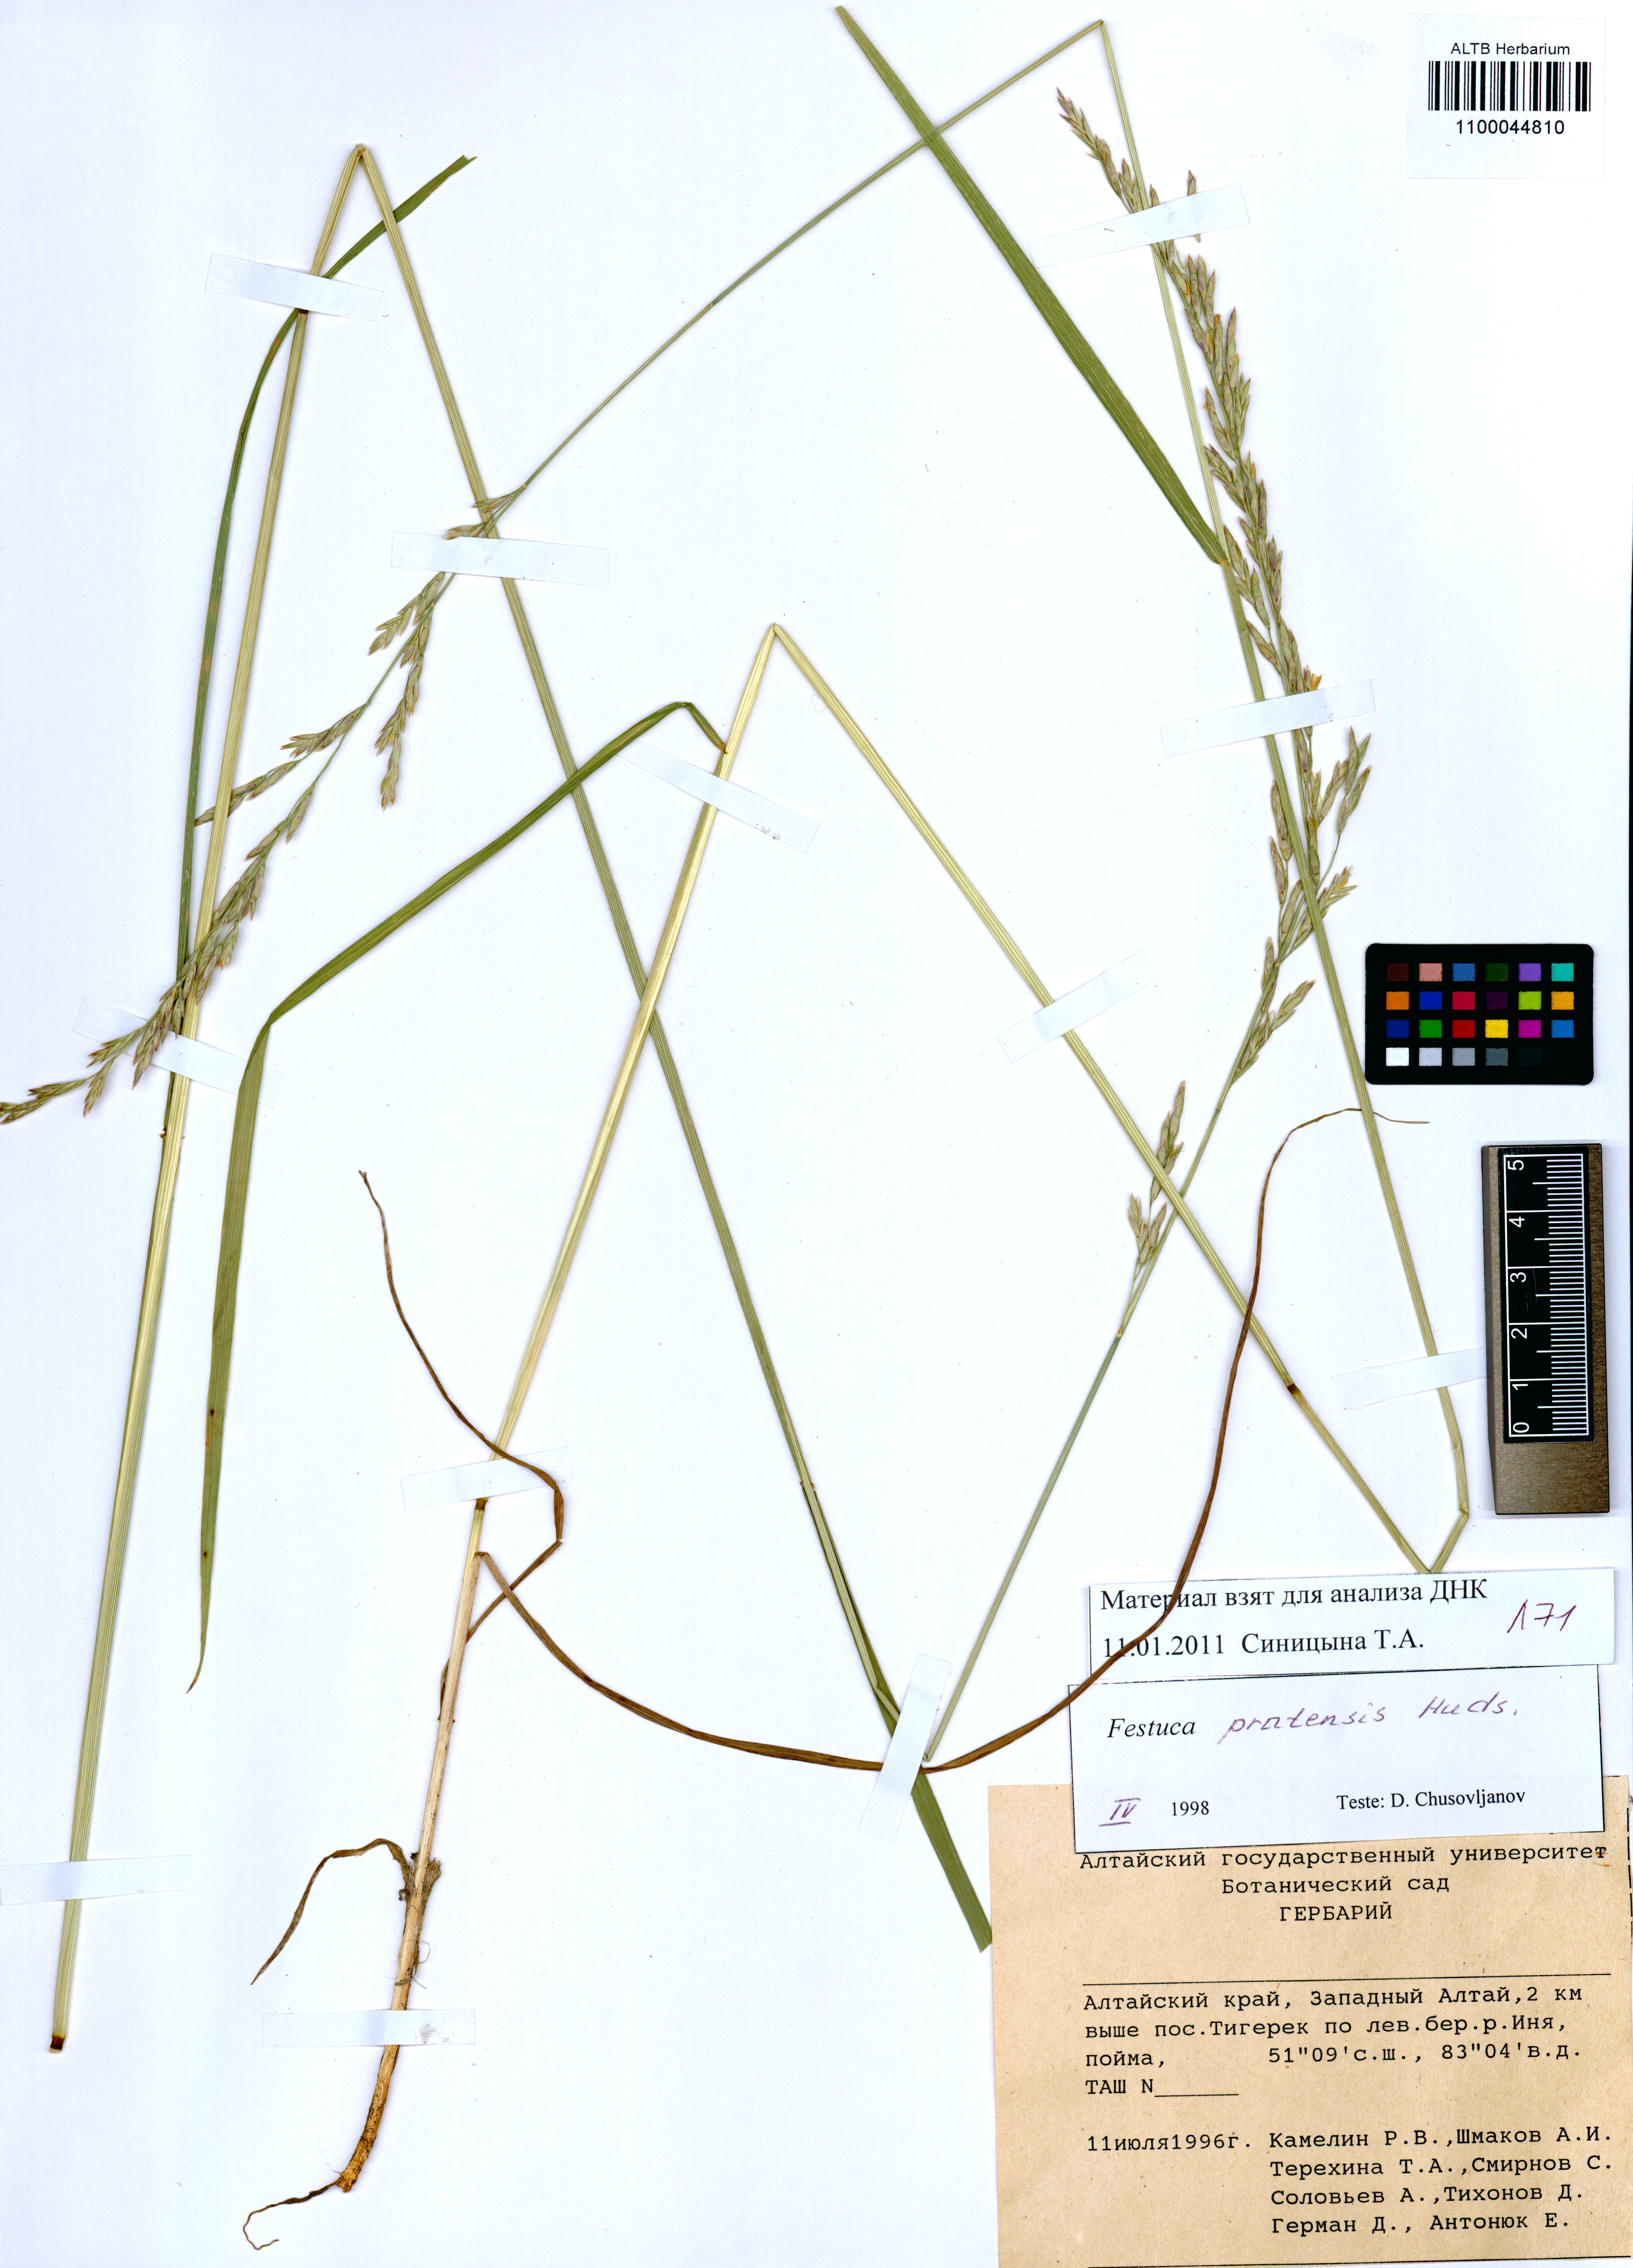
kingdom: Plantae
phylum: Tracheophyta
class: Liliopsida
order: Poales
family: Poaceae
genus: Lolium
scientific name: Lolium pratense
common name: Dover grass
